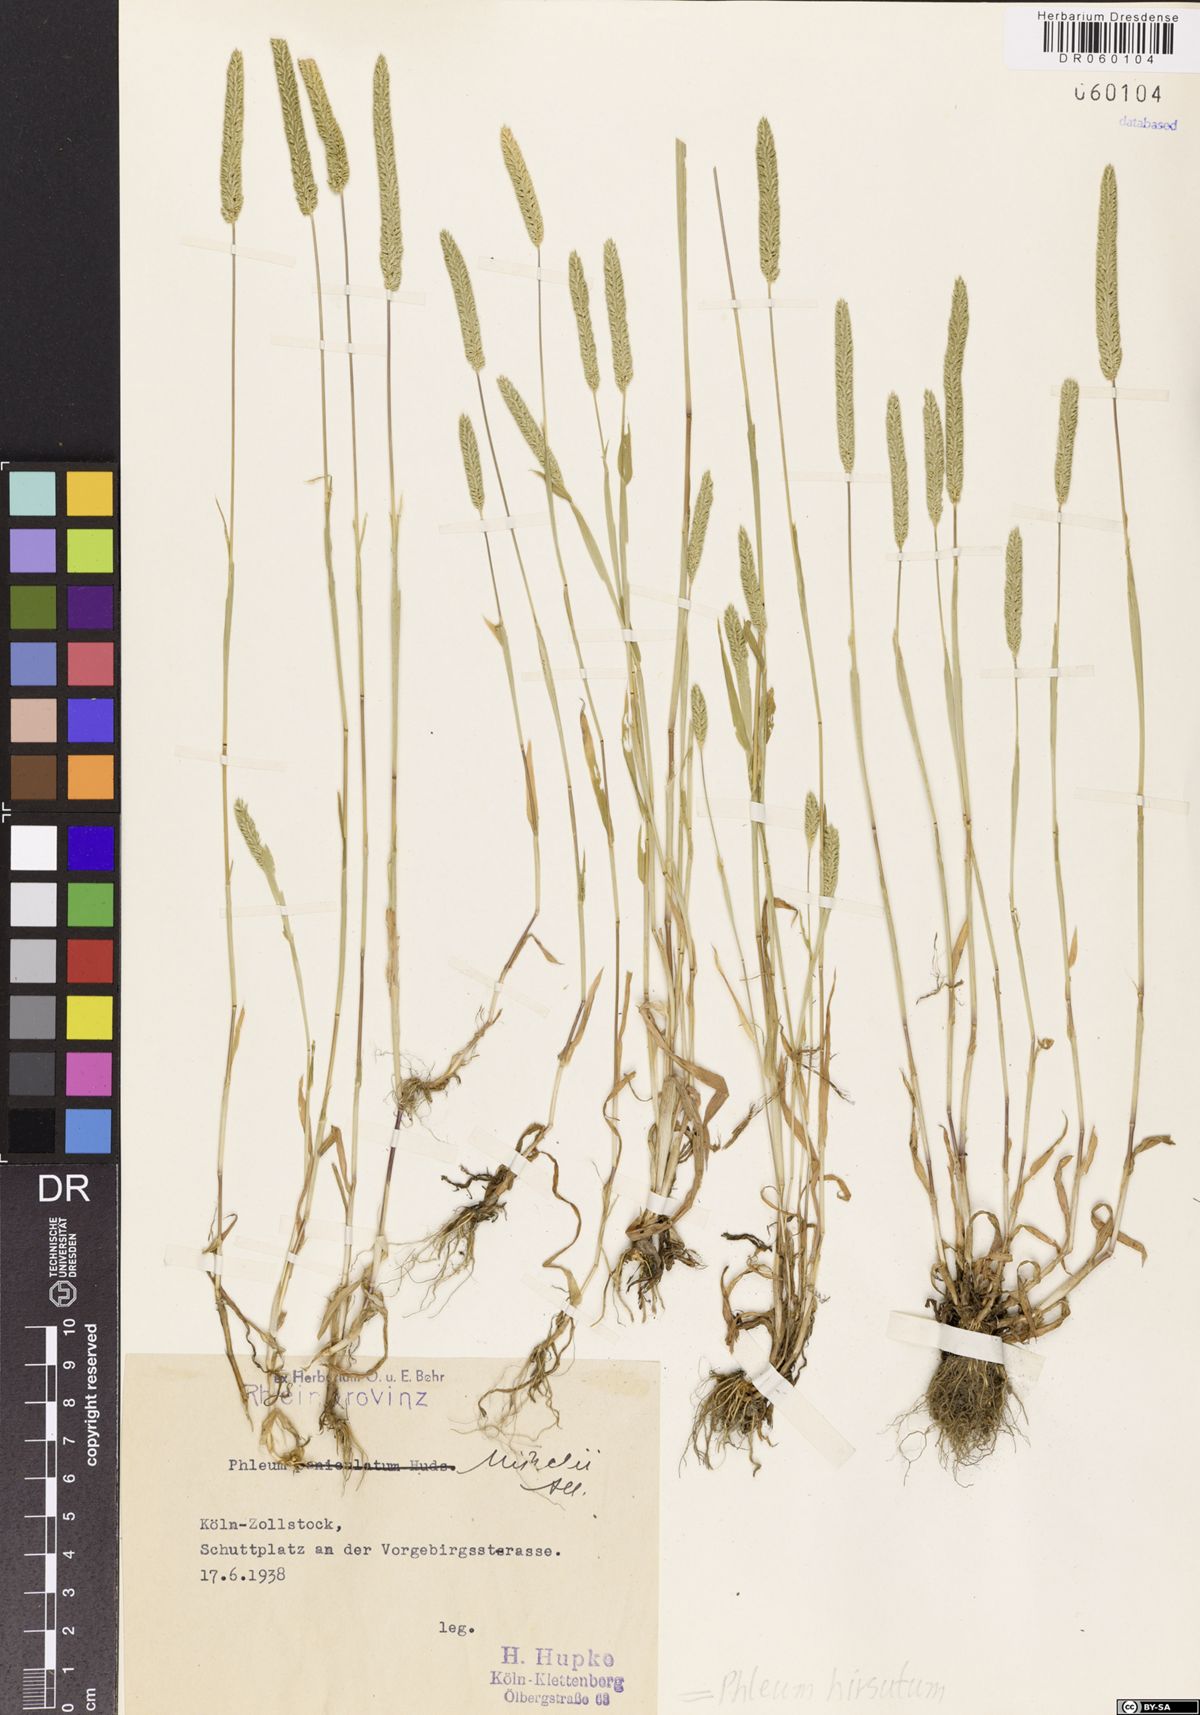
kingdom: Plantae
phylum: Tracheophyta
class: Liliopsida
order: Poales
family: Poaceae
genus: Phleum
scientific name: Phleum hirsutum
